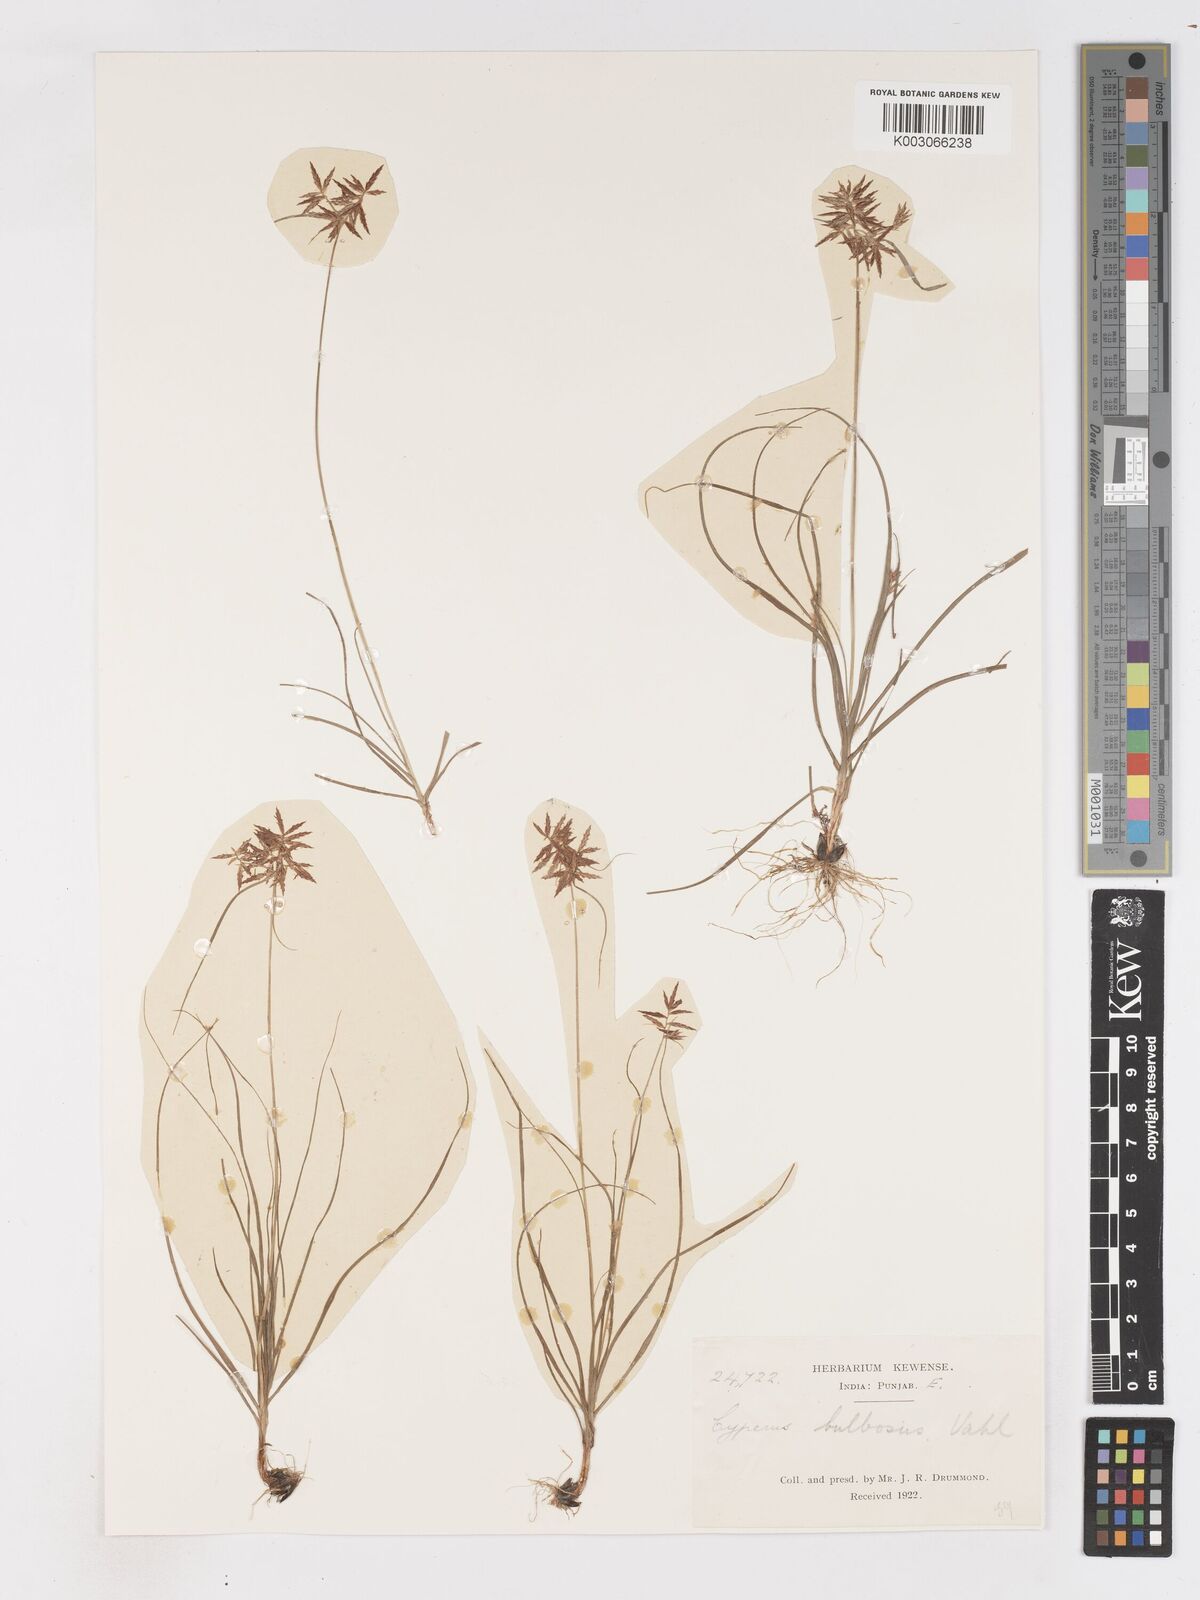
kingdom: Plantae
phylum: Tracheophyta
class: Liliopsida
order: Poales
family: Cyperaceae
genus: Cyperus
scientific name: Cyperus bulbosus
